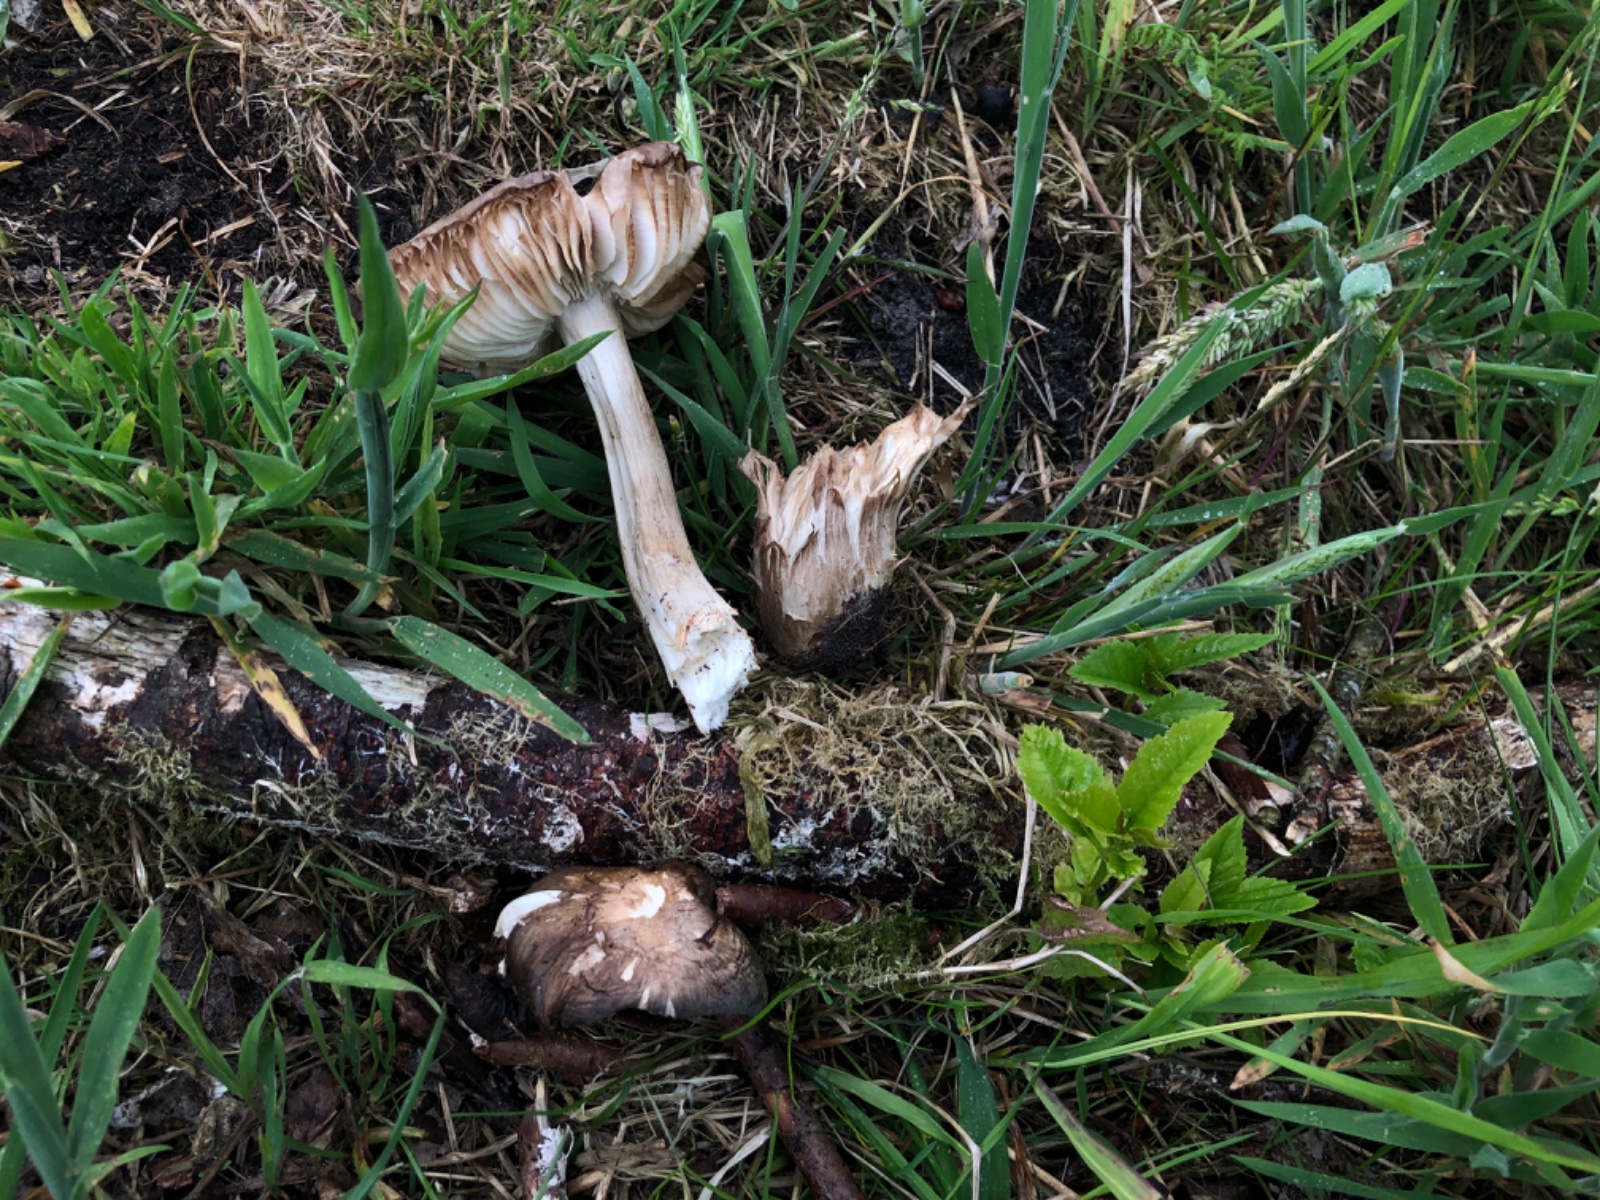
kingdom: Fungi
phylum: Basidiomycota
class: Agaricomycetes
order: Agaricales
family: Entolomataceae
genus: Entoloma
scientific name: Entoloma
